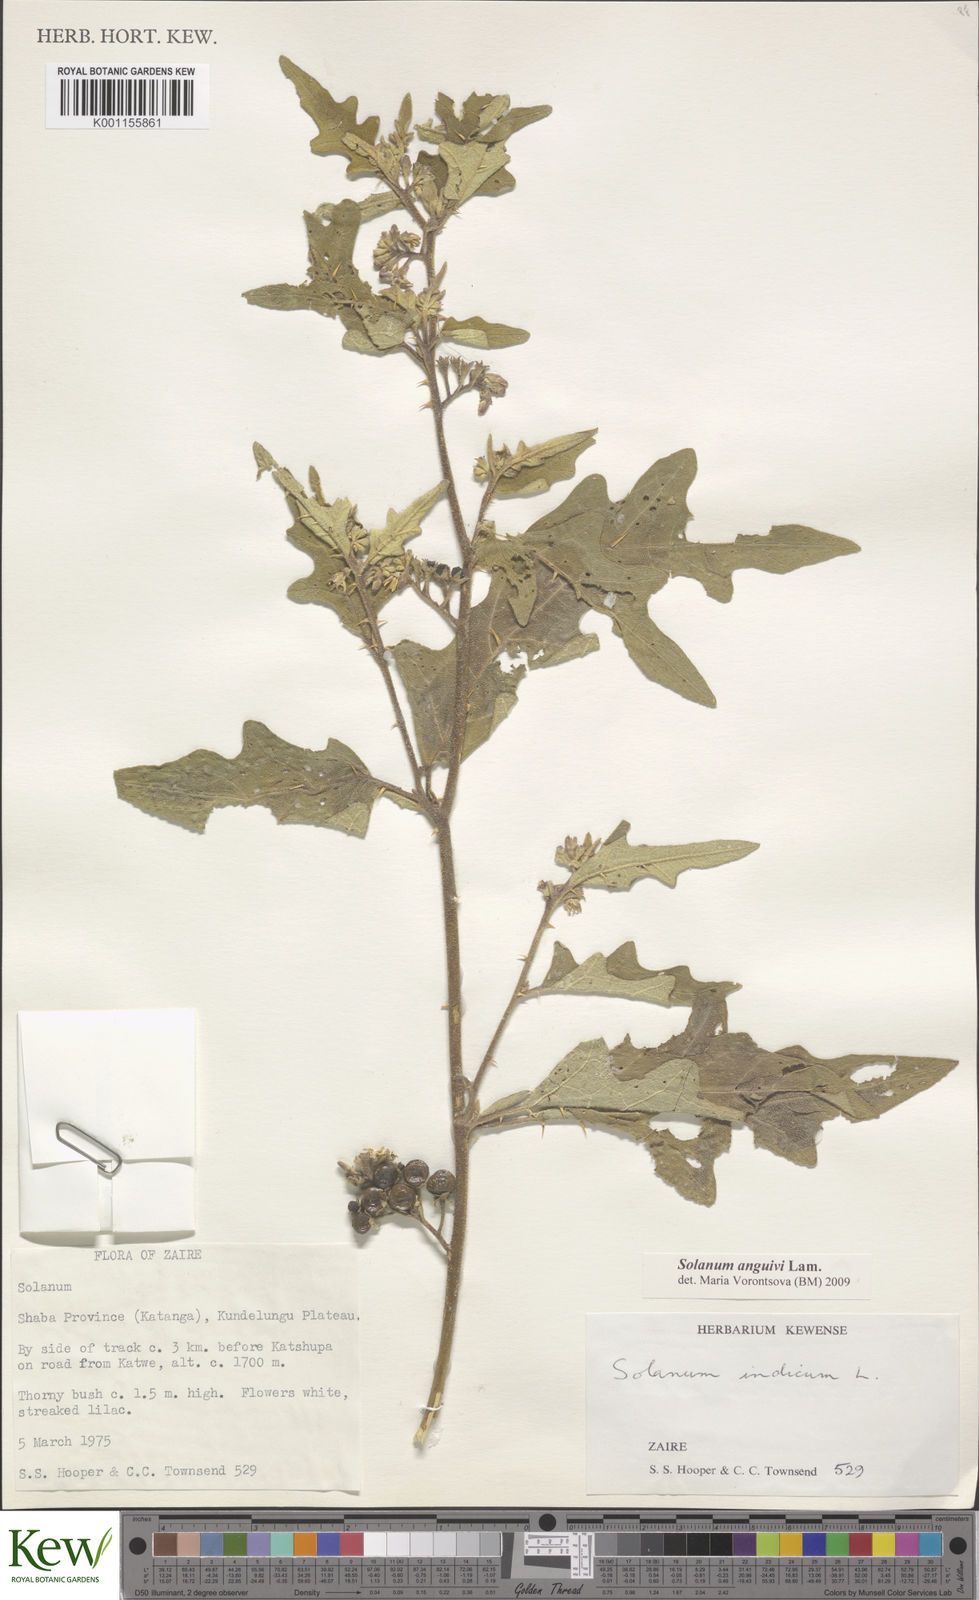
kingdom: Plantae
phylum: Tracheophyta
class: Magnoliopsida
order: Solanales
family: Solanaceae
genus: Solanum
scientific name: Solanum anguivi
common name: Forest bitterberry
